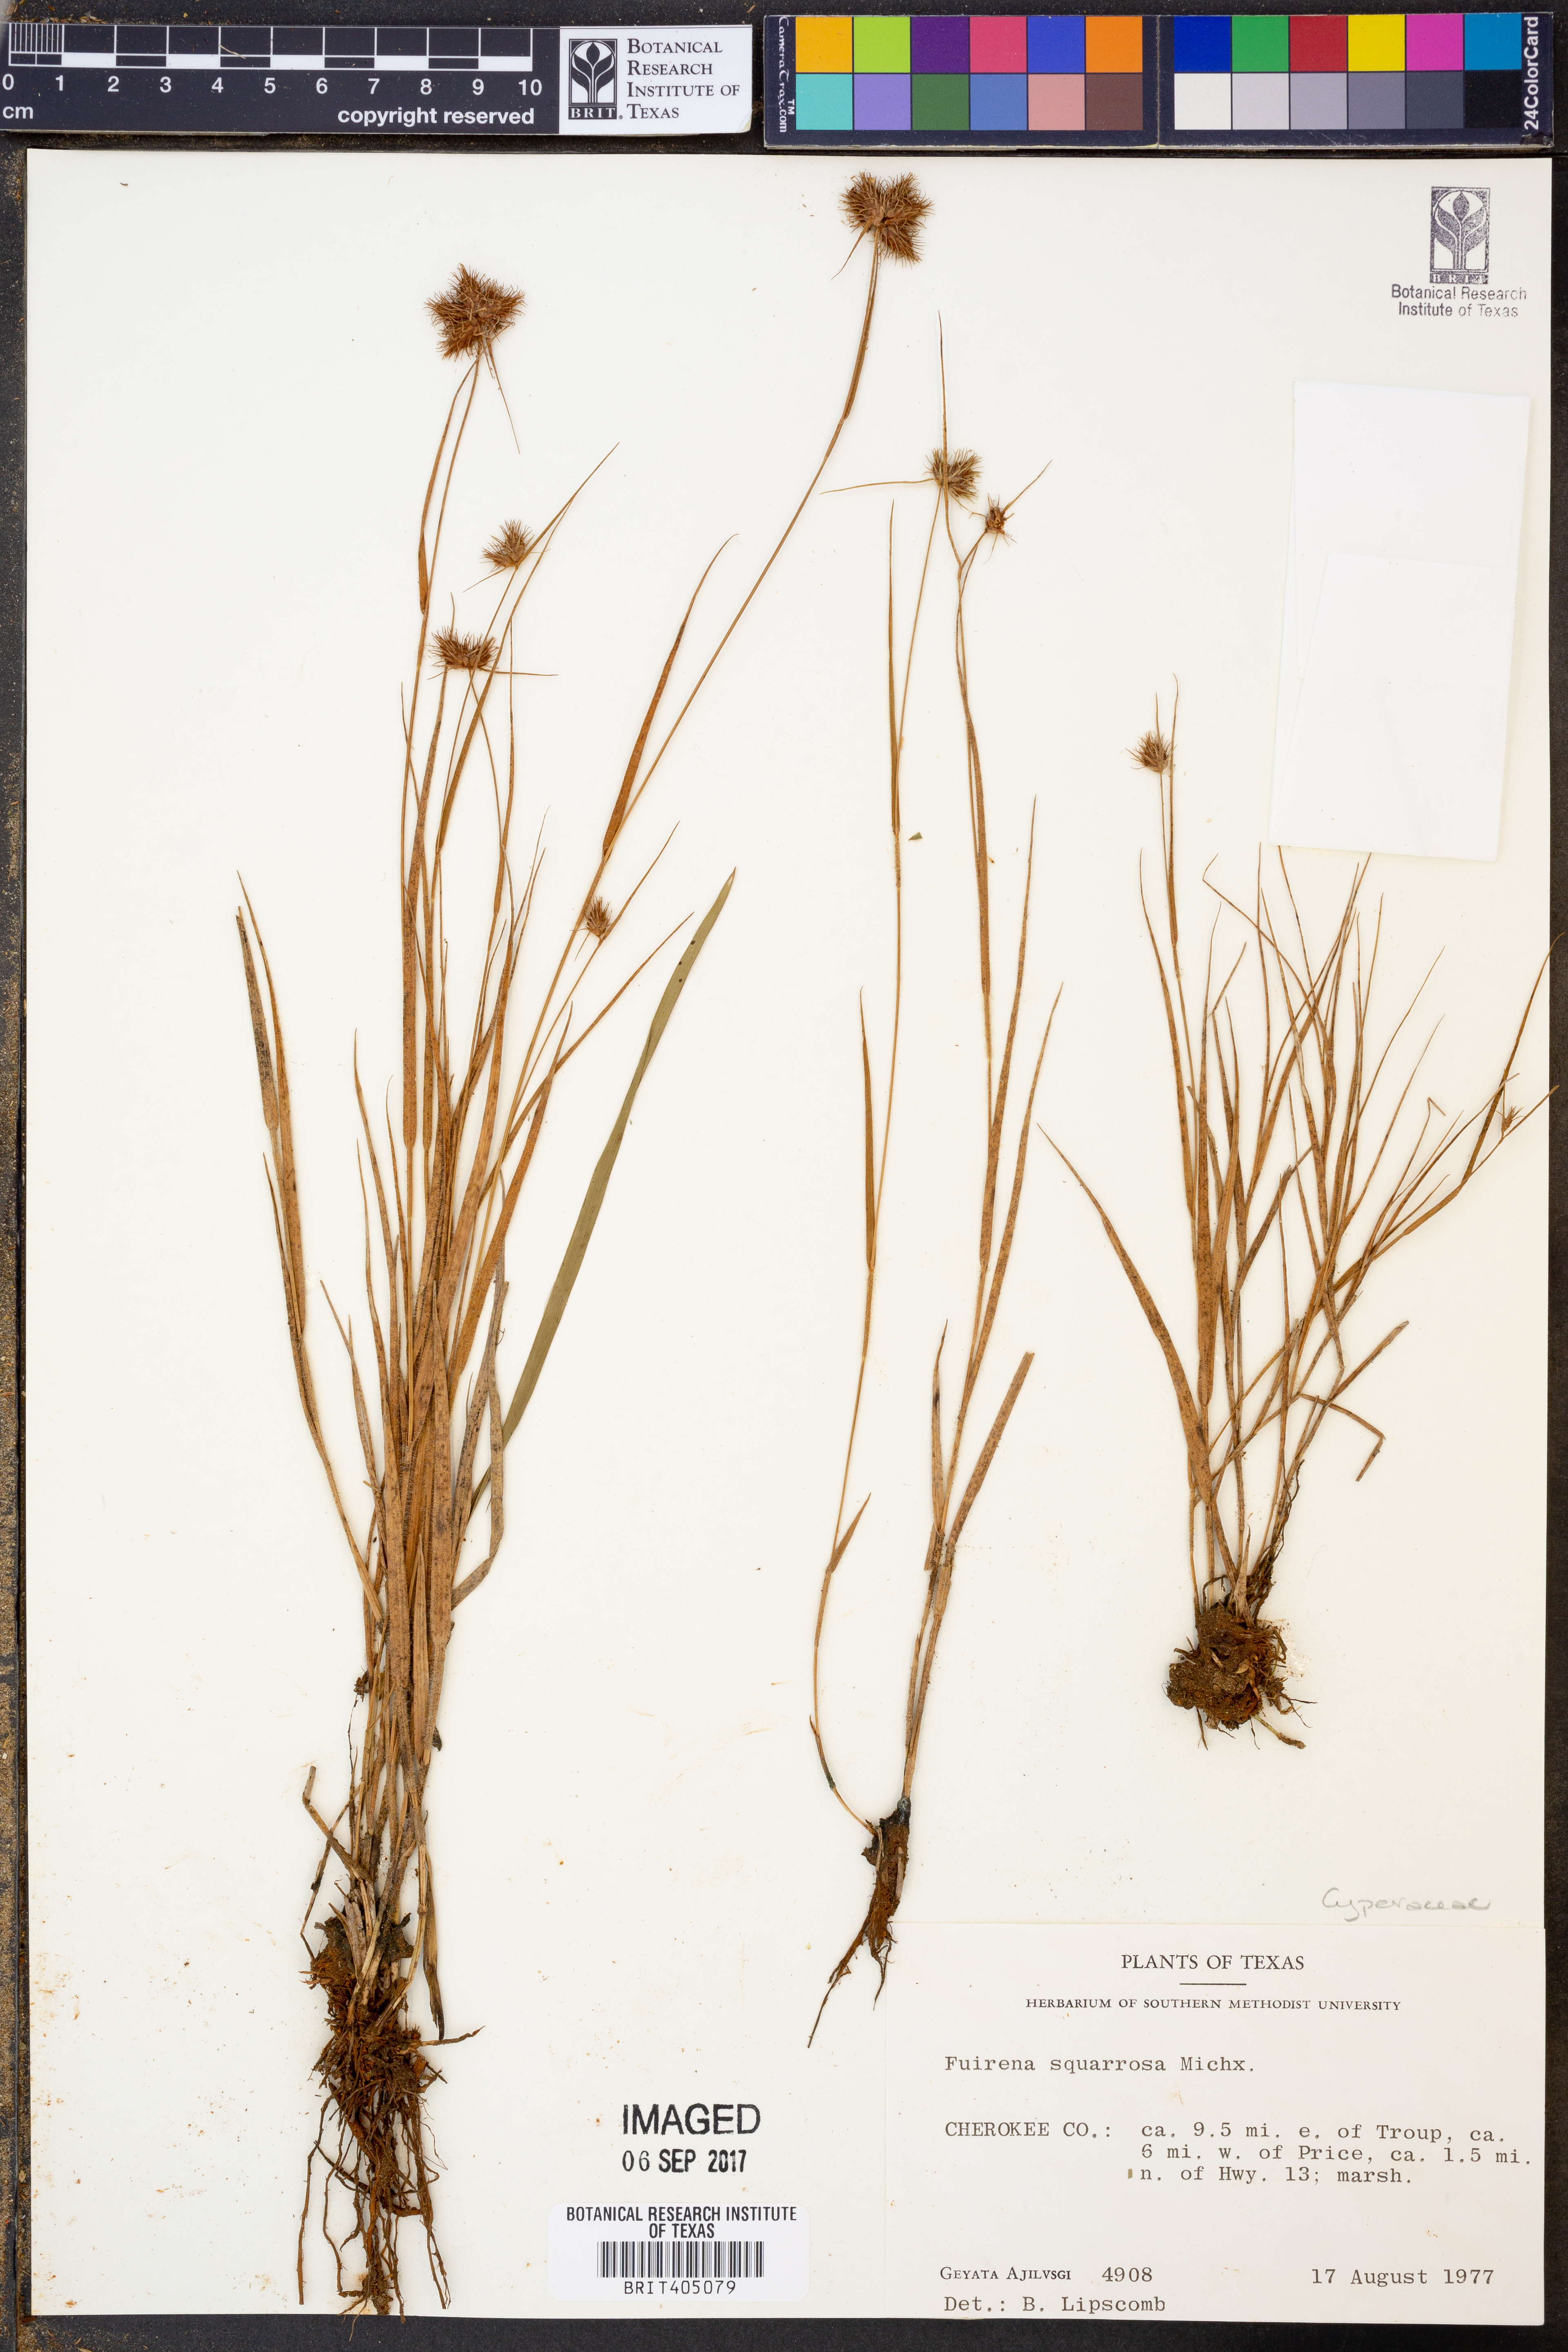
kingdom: Plantae
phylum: Tracheophyta
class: Liliopsida
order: Poales
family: Cyperaceae
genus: Fuirena
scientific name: Fuirena squarrosa
